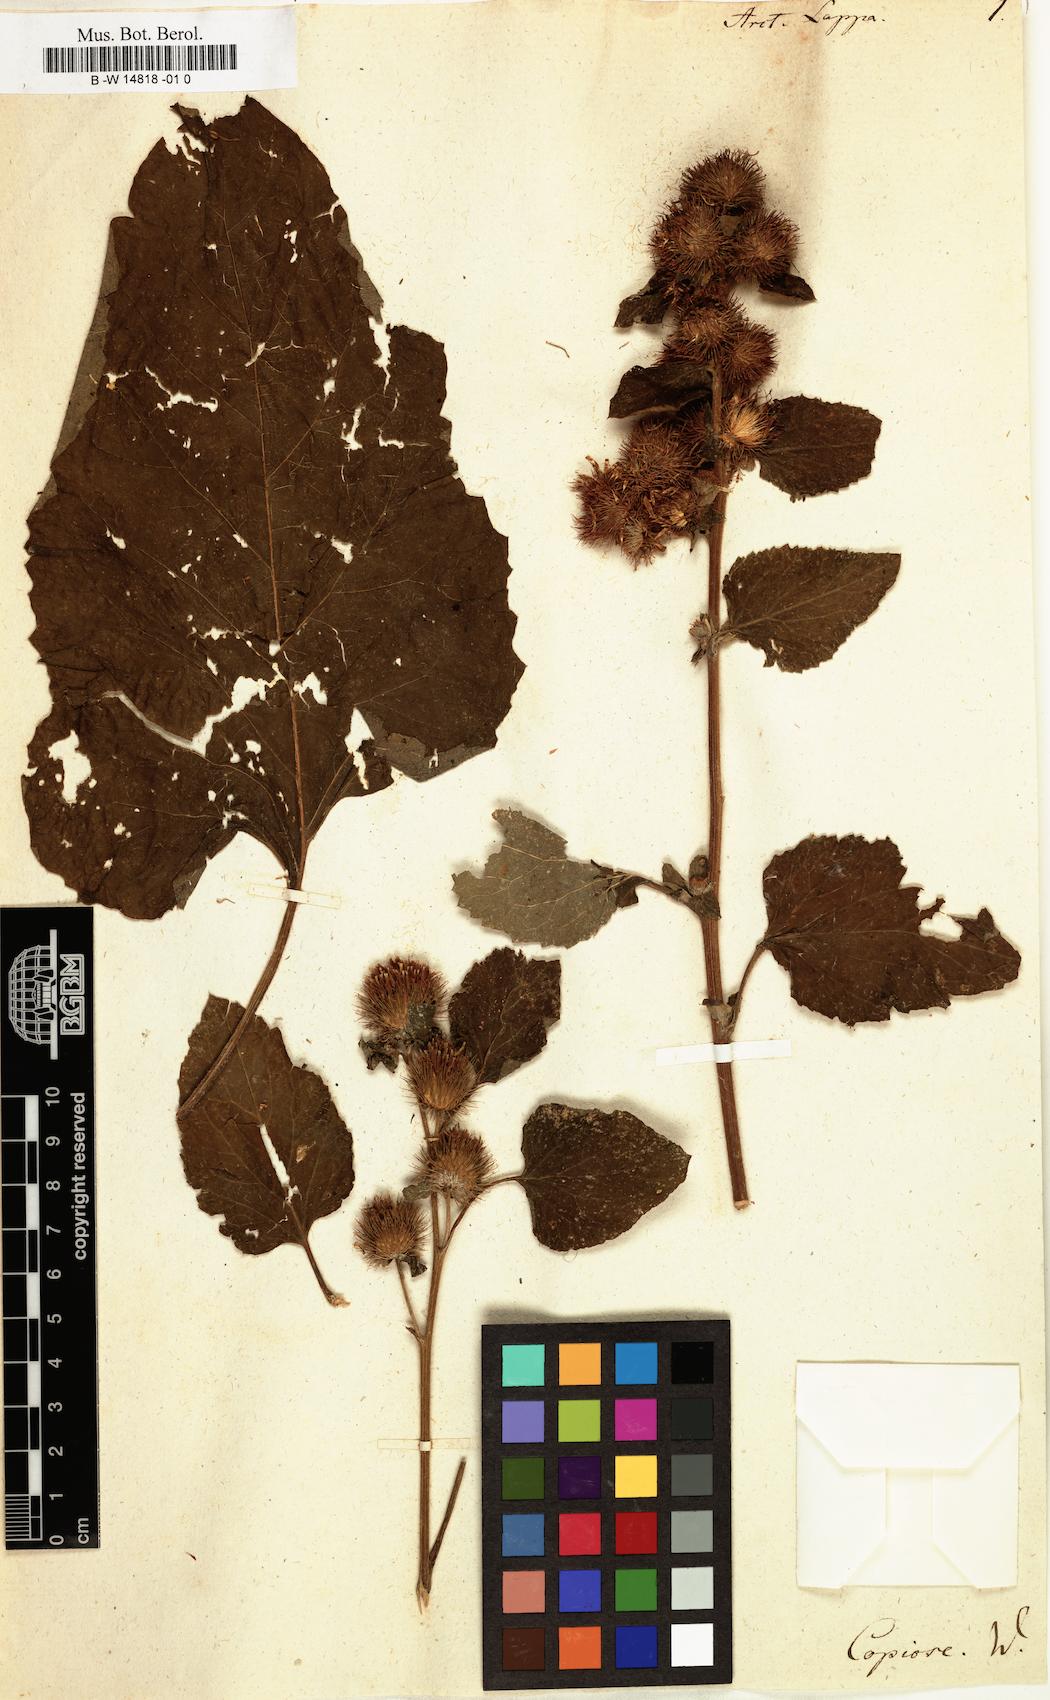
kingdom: Plantae
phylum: Tracheophyta
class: Magnoliopsida
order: Asterales
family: Asteraceae
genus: Arctium
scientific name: Arctium lappa
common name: Greater burdock
